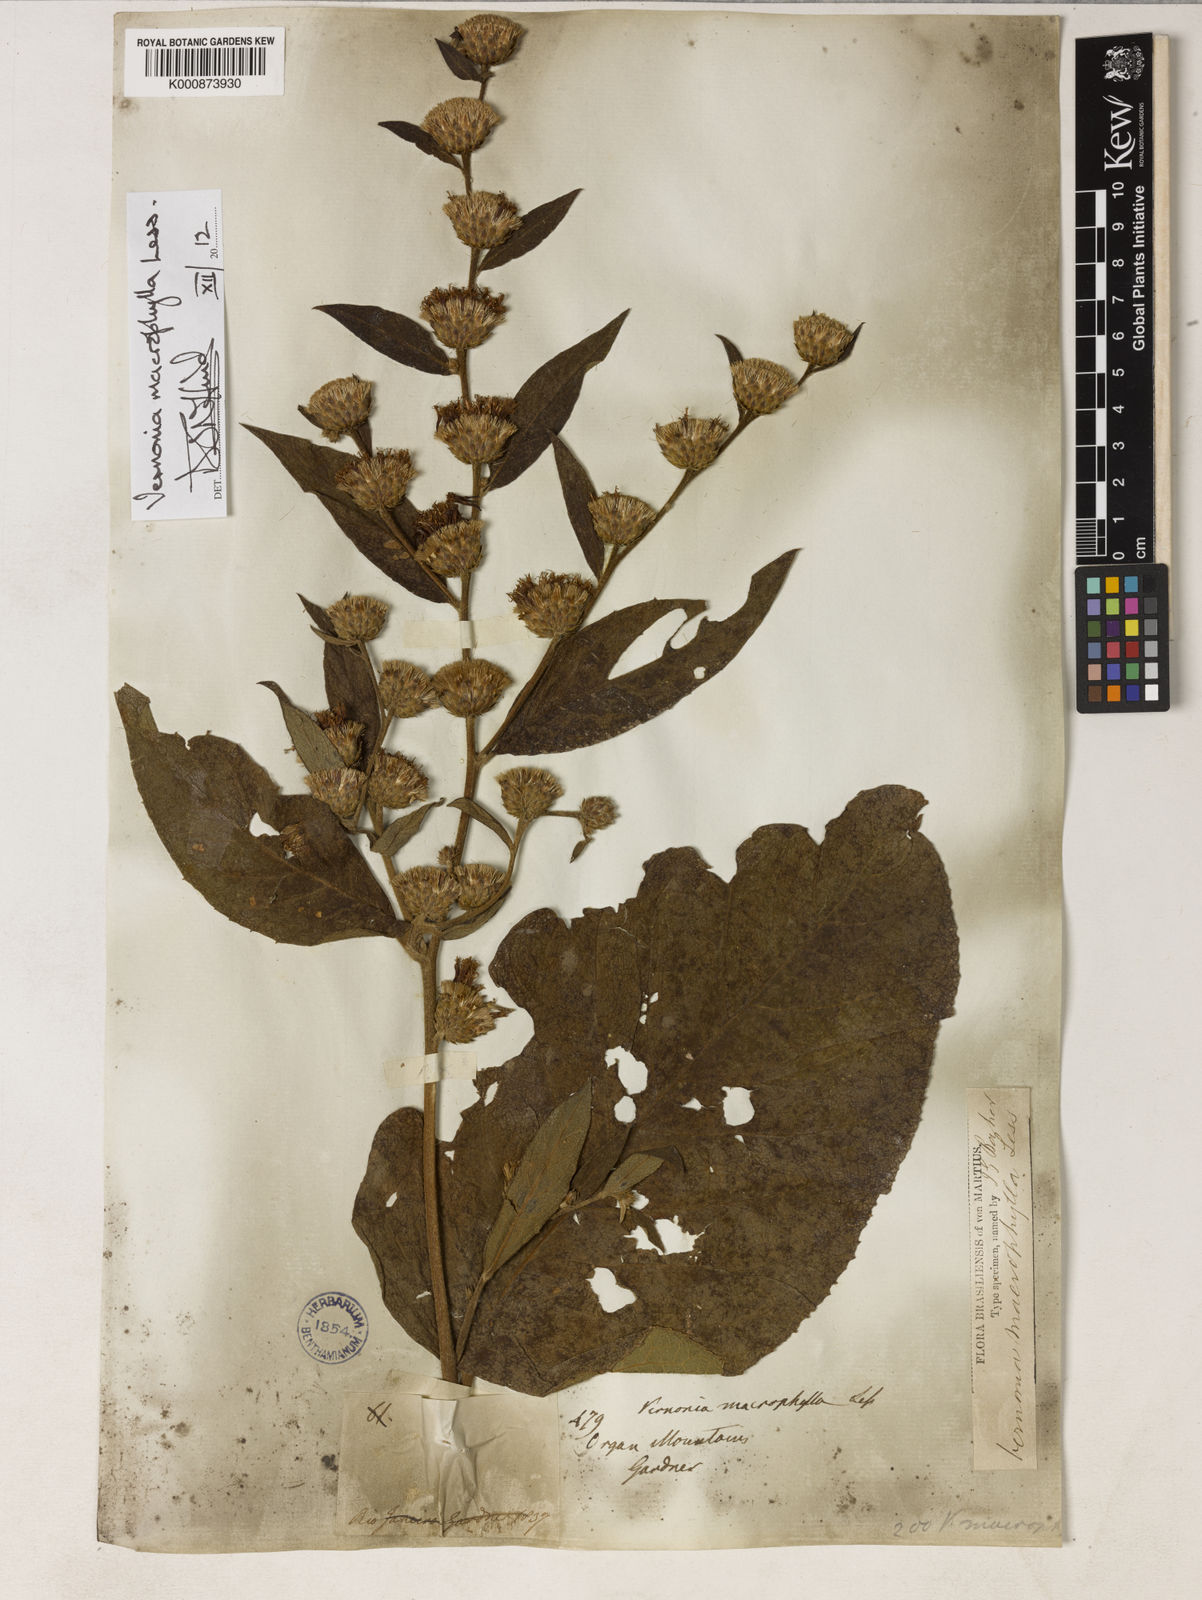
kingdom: Plantae
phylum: Tracheophyta
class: Magnoliopsida
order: Asterales
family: Asteraceae
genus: Lessingianthus
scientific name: Lessingianthus macrophyllus
